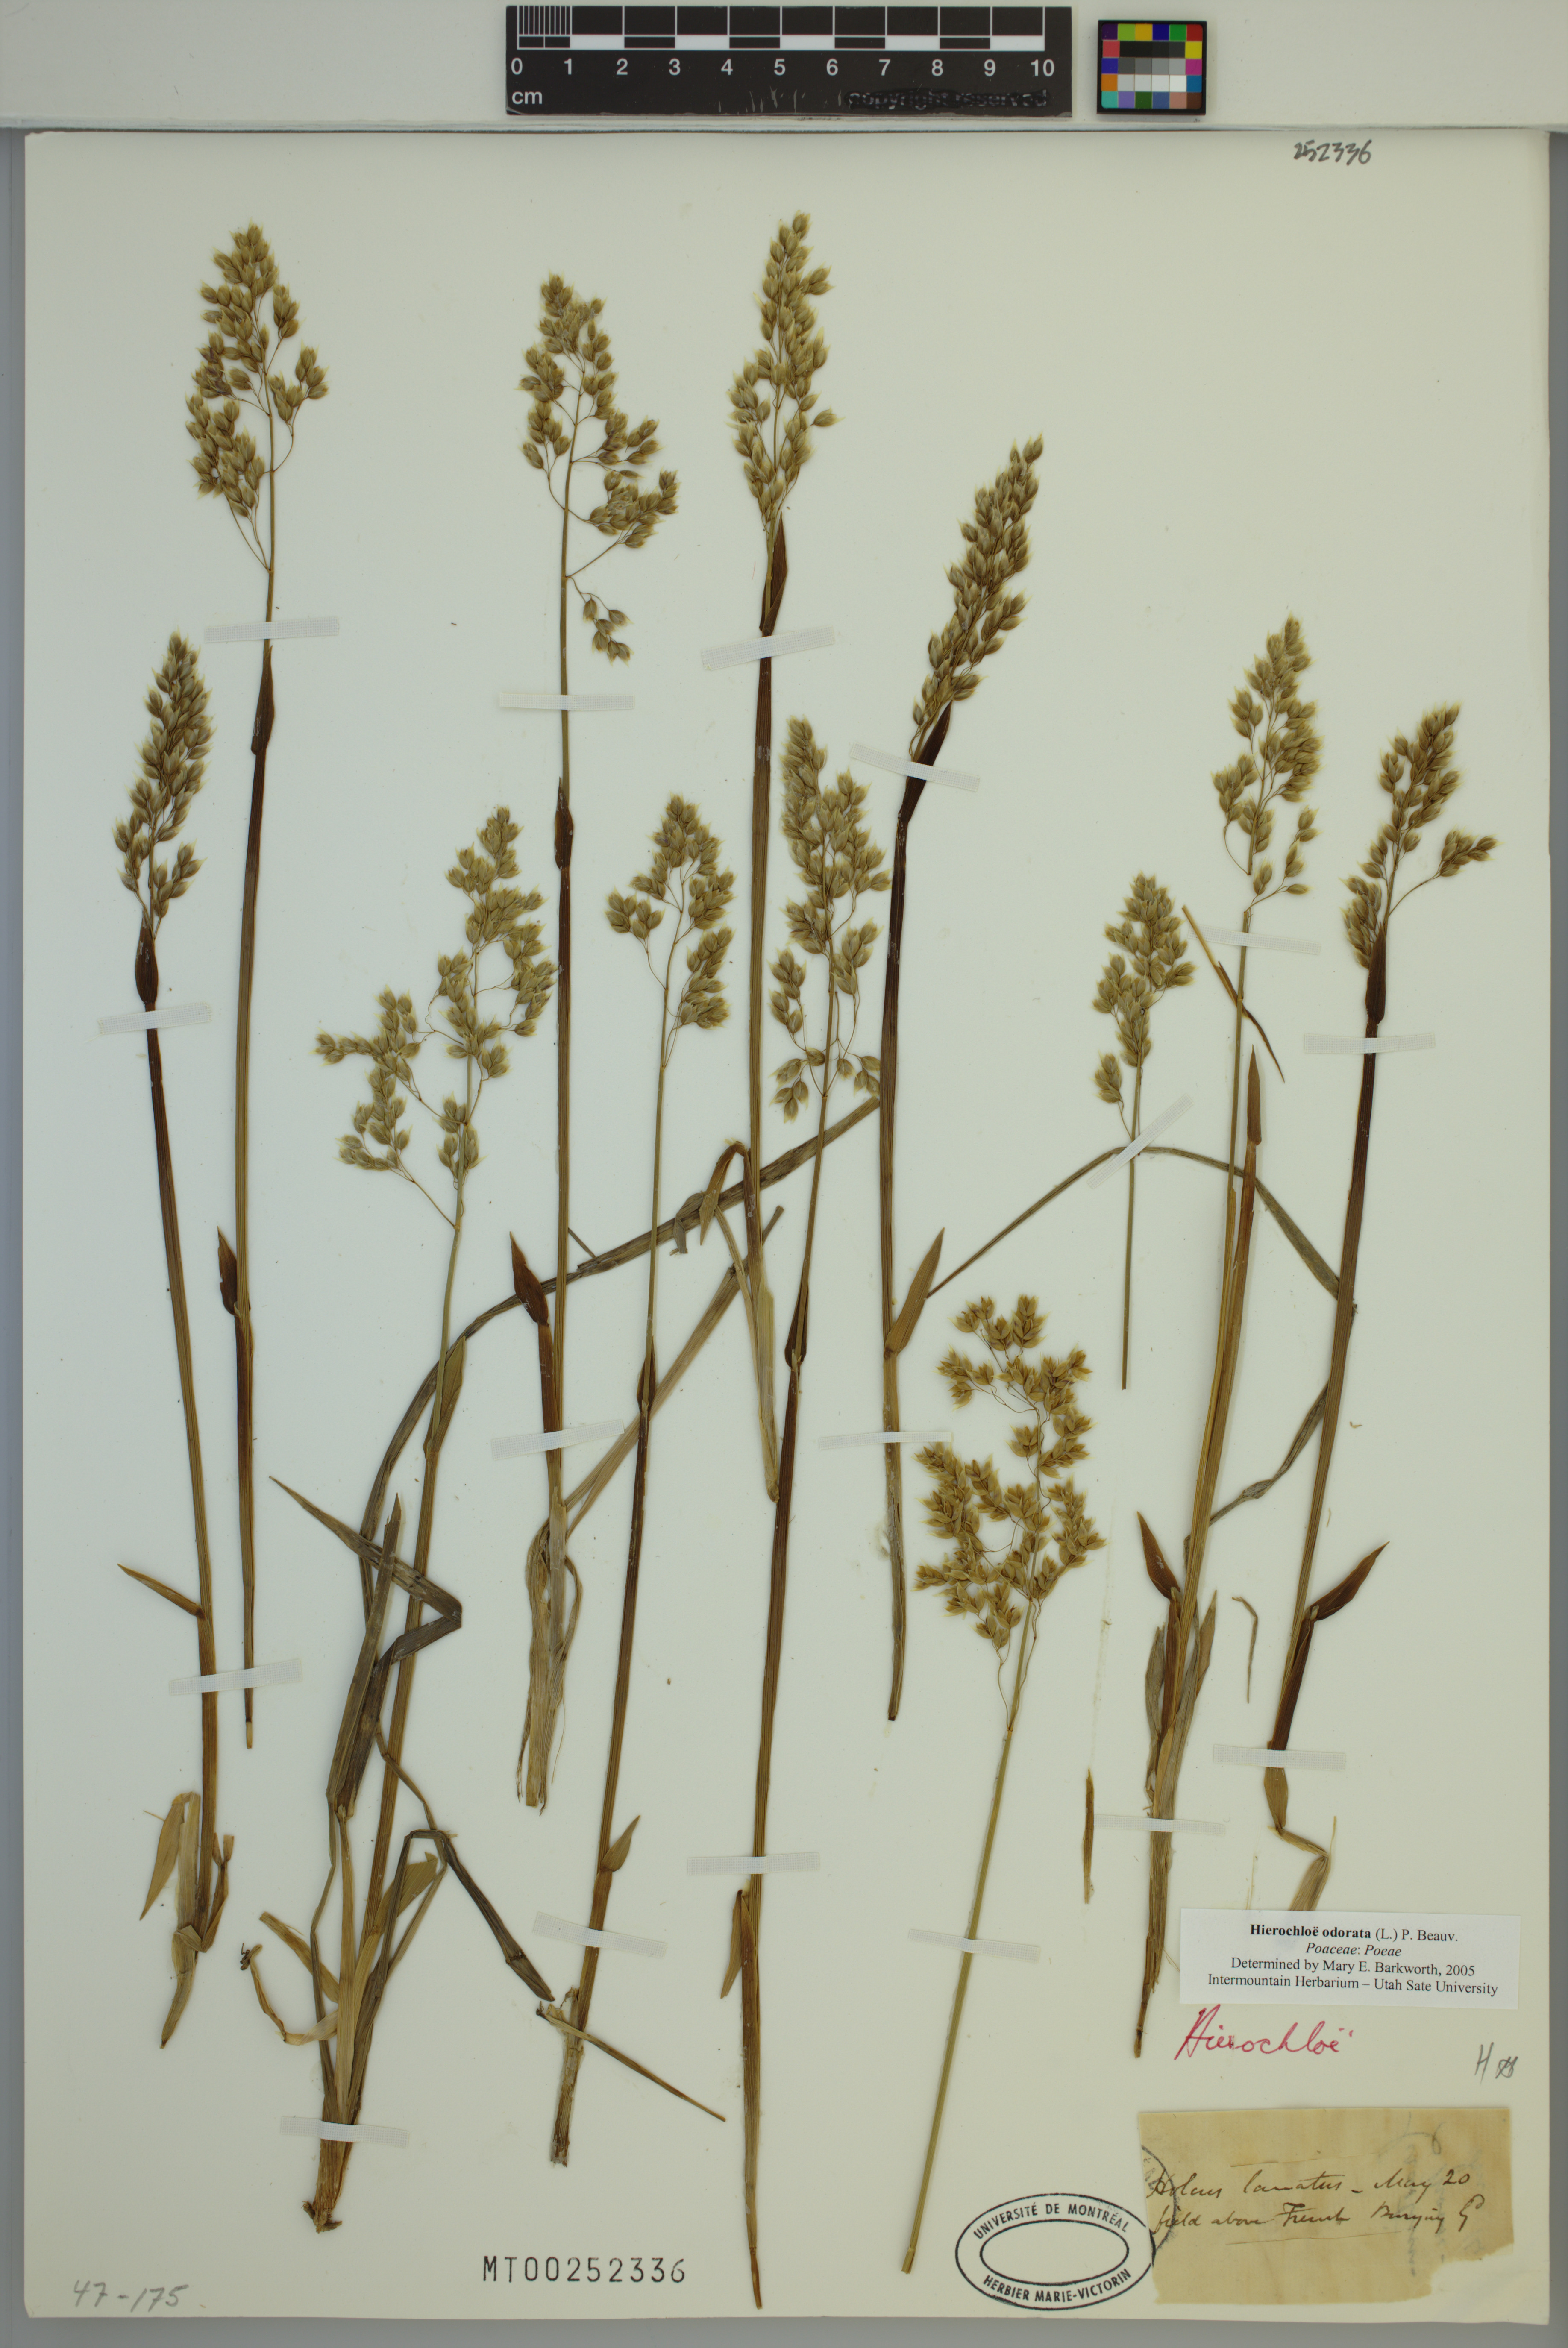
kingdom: Plantae
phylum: Tracheophyta
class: Liliopsida
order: Poales
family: Poaceae
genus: Anthoxanthum
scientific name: Anthoxanthum nitens
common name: Holy grass
